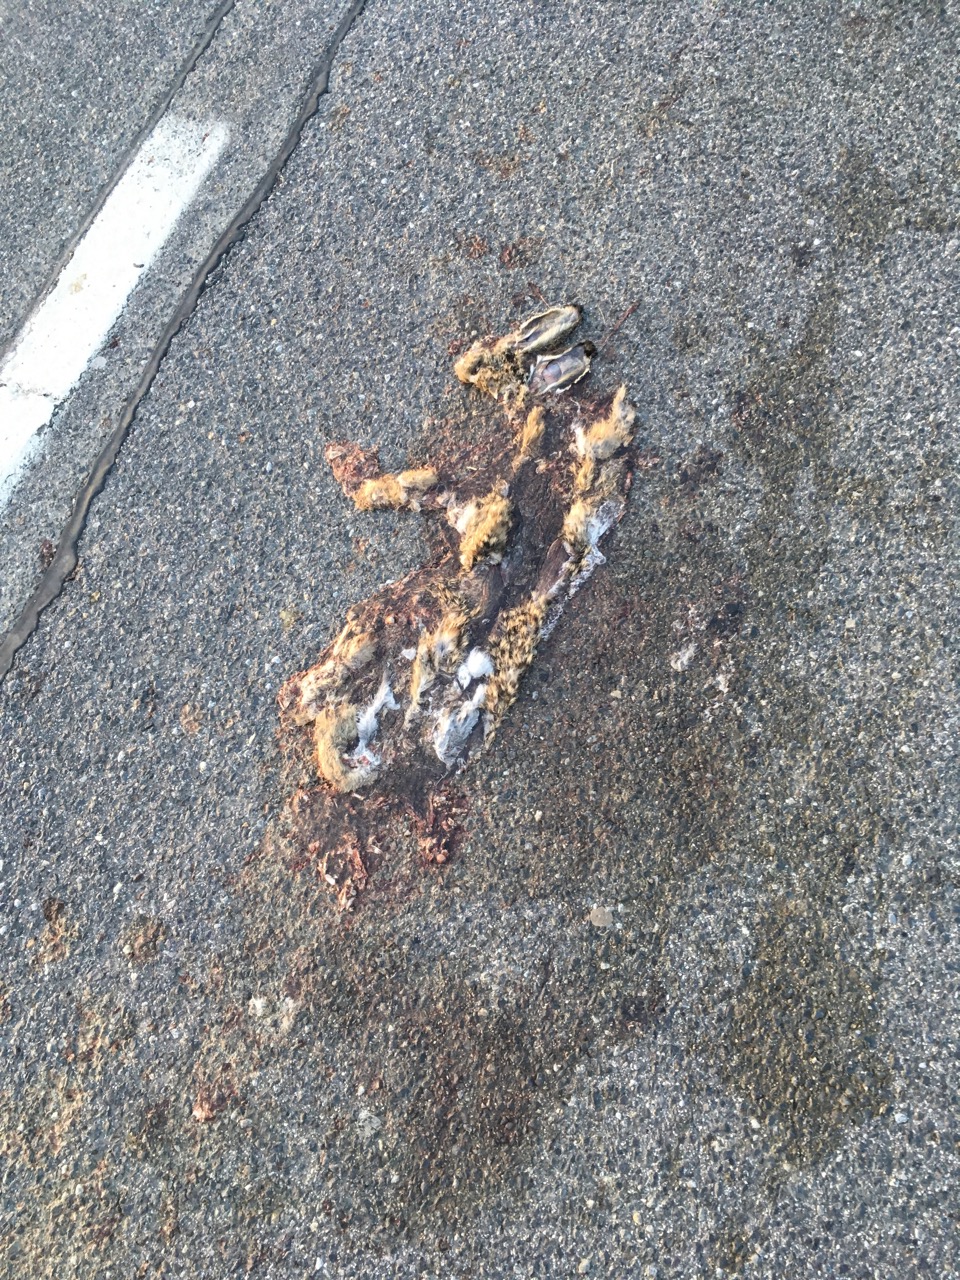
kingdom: Animalia
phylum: Chordata
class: Mammalia
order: Lagomorpha
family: Leporidae
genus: Lepus
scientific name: Lepus europaeus
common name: European hare
